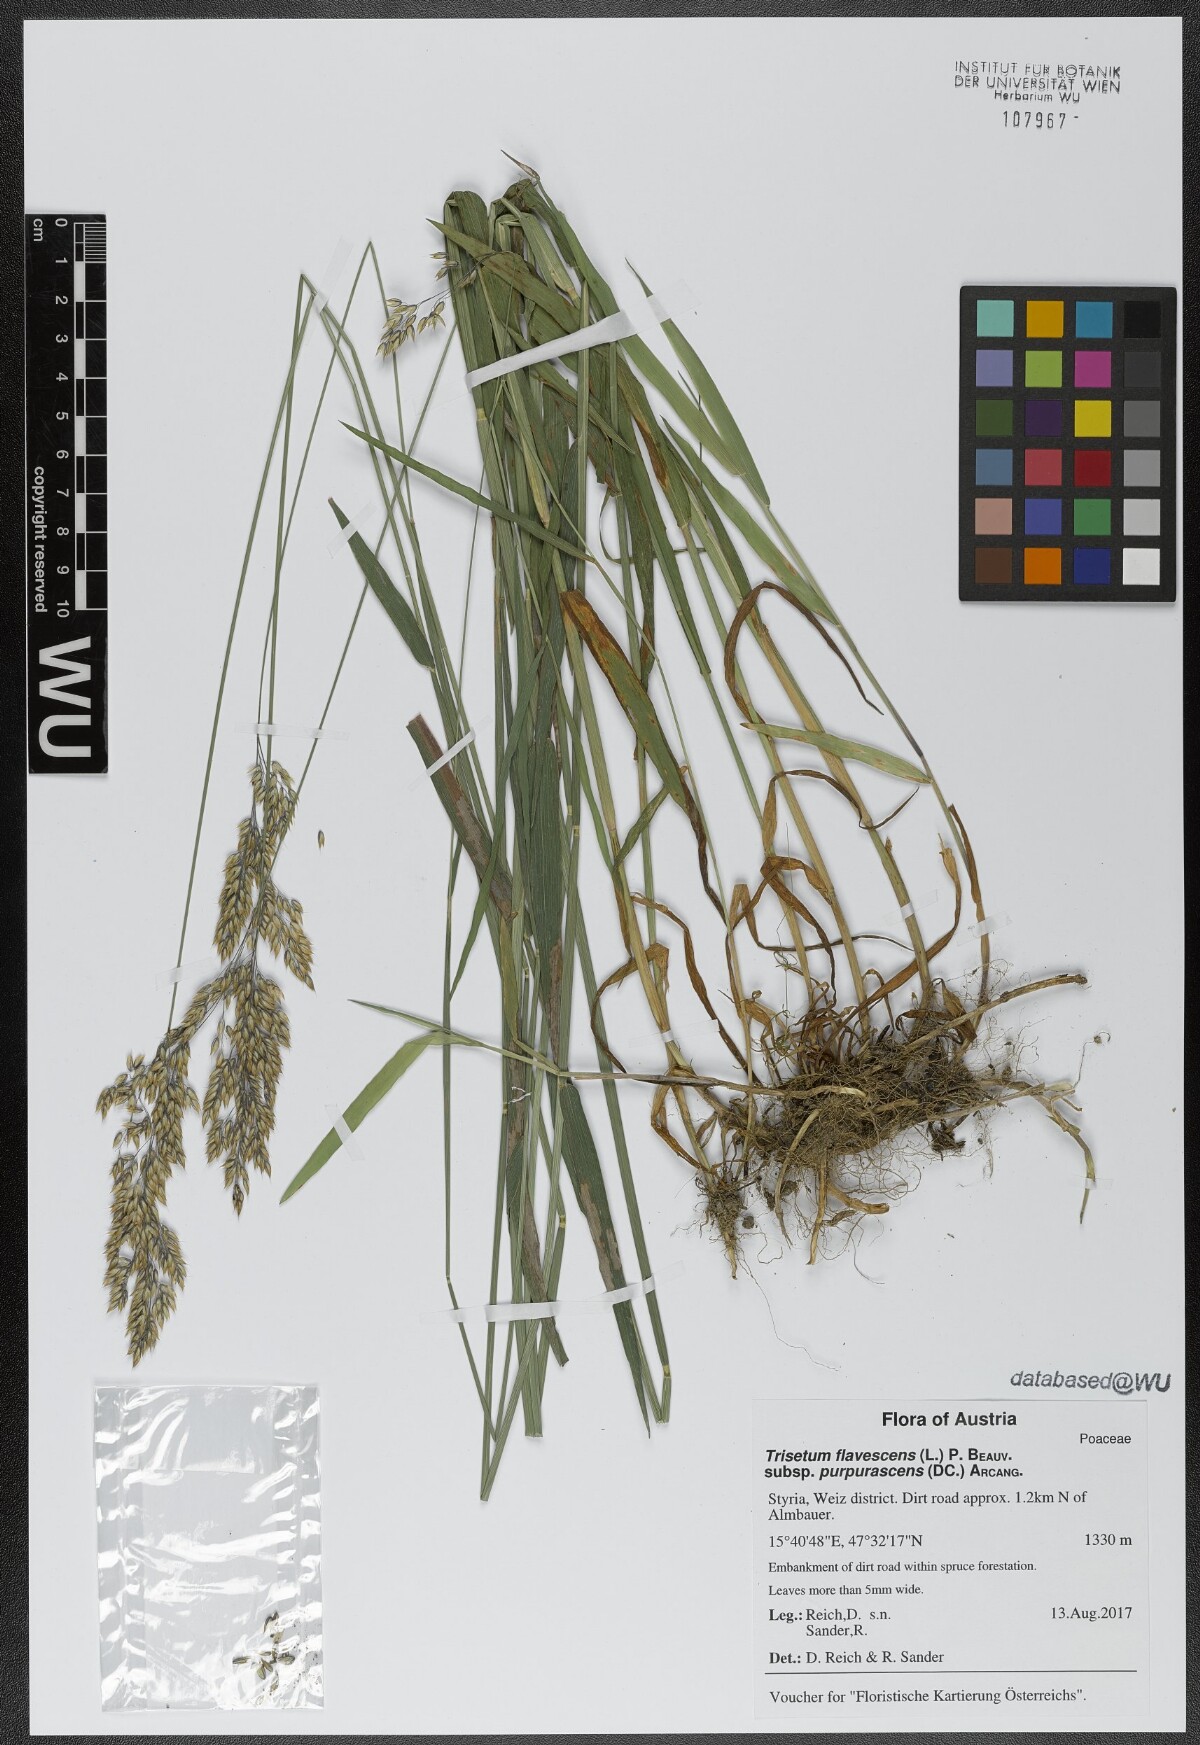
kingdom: Plantae
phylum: Tracheophyta
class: Liliopsida
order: Poales
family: Poaceae
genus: Trisetum
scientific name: Trisetum flavescens
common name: Yellow oat-grass
